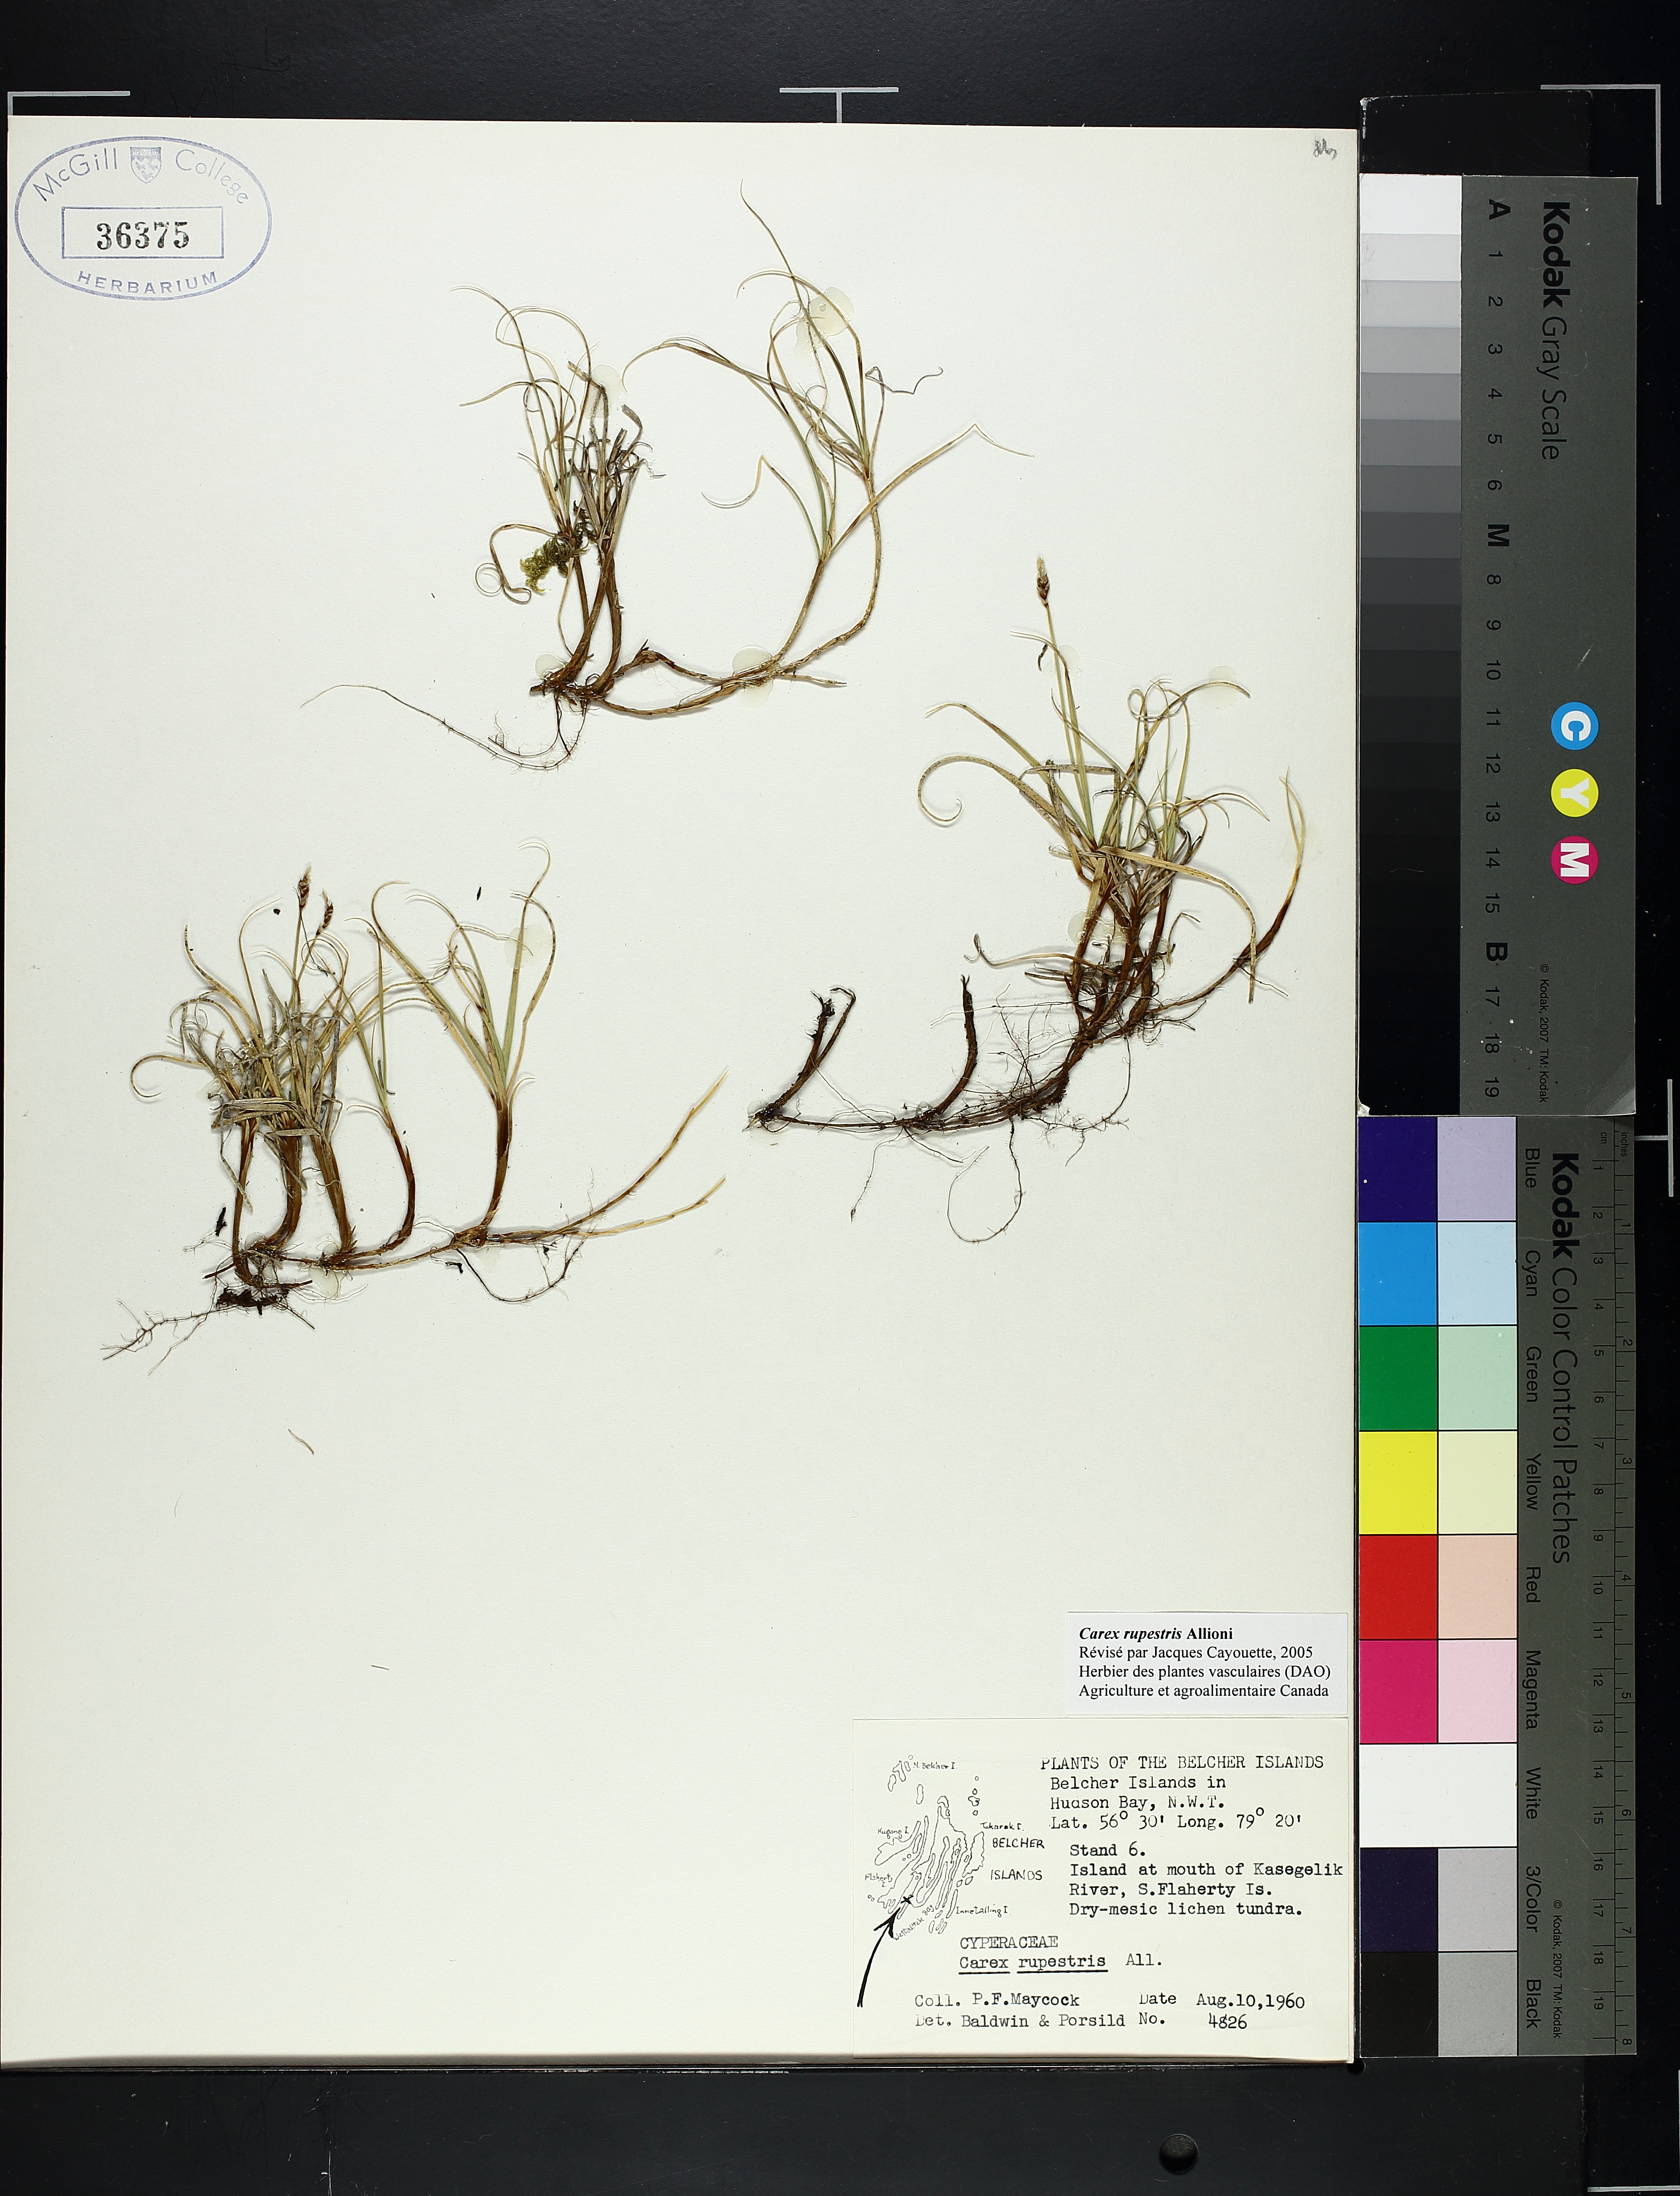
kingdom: Plantae
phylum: Tracheophyta
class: Liliopsida
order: Poales
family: Cyperaceae
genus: Carex
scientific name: Carex rupestris
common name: Rock sedge
